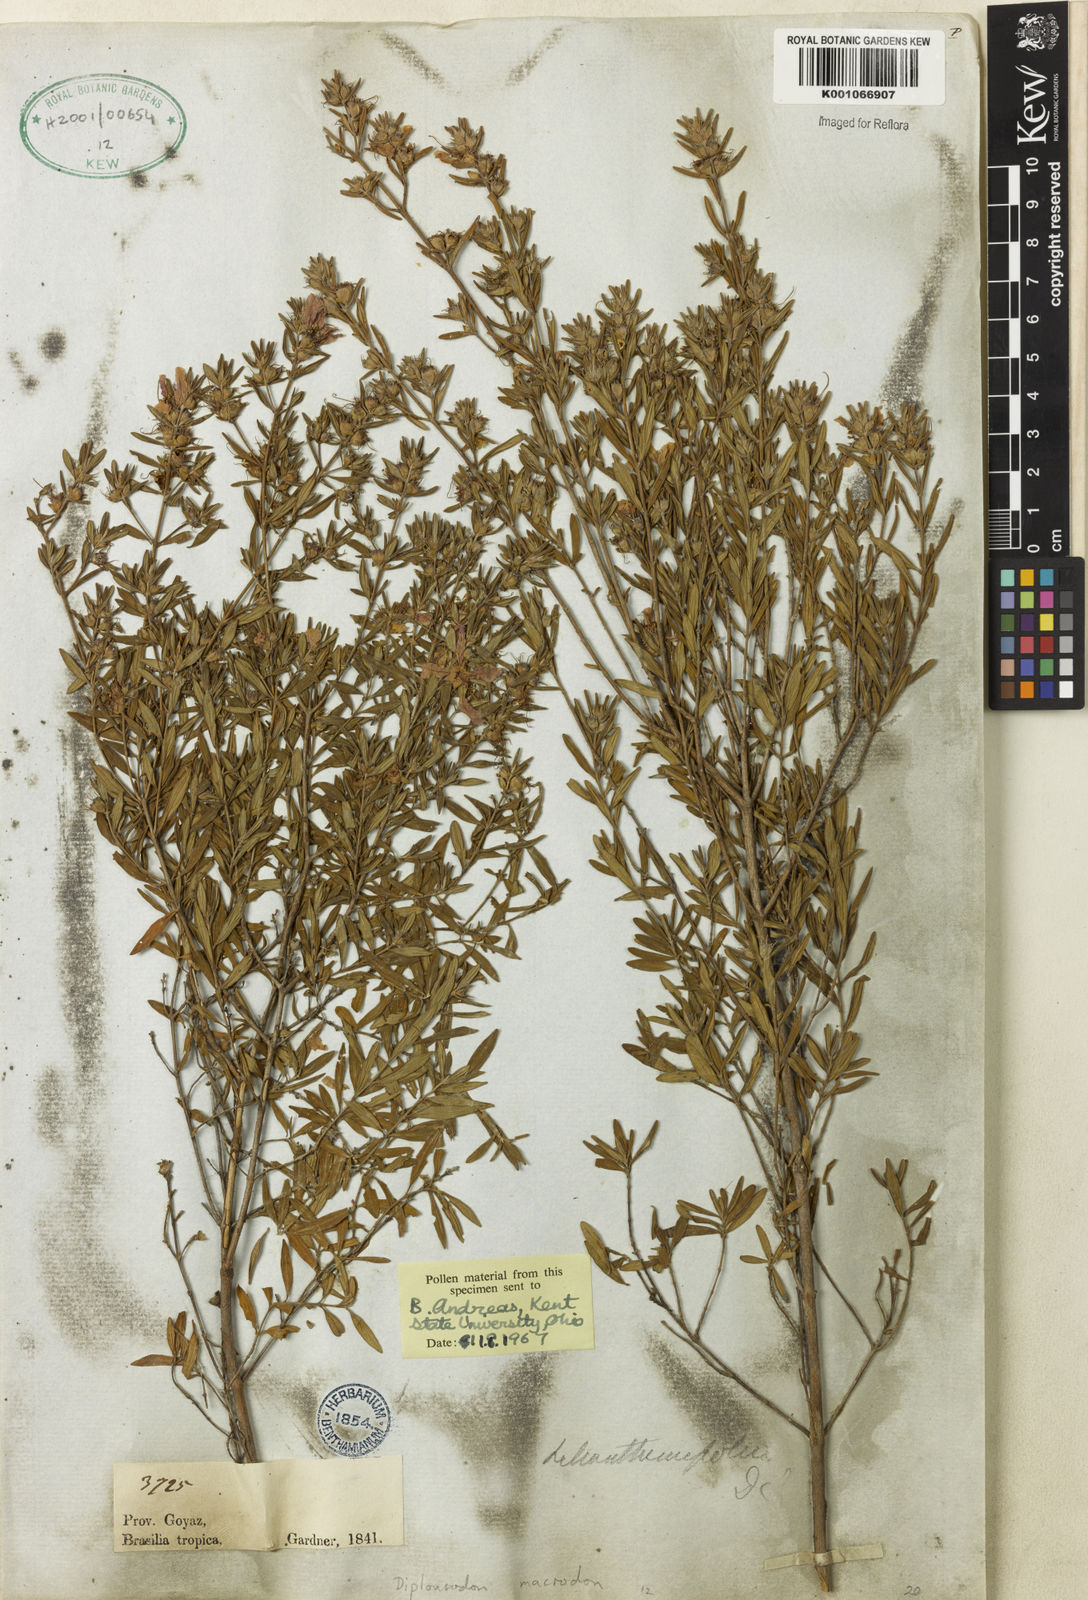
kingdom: Plantae
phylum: Tracheophyta
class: Magnoliopsida
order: Myrtales
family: Lythraceae
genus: Diplusodon
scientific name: Diplusodon macrodon
